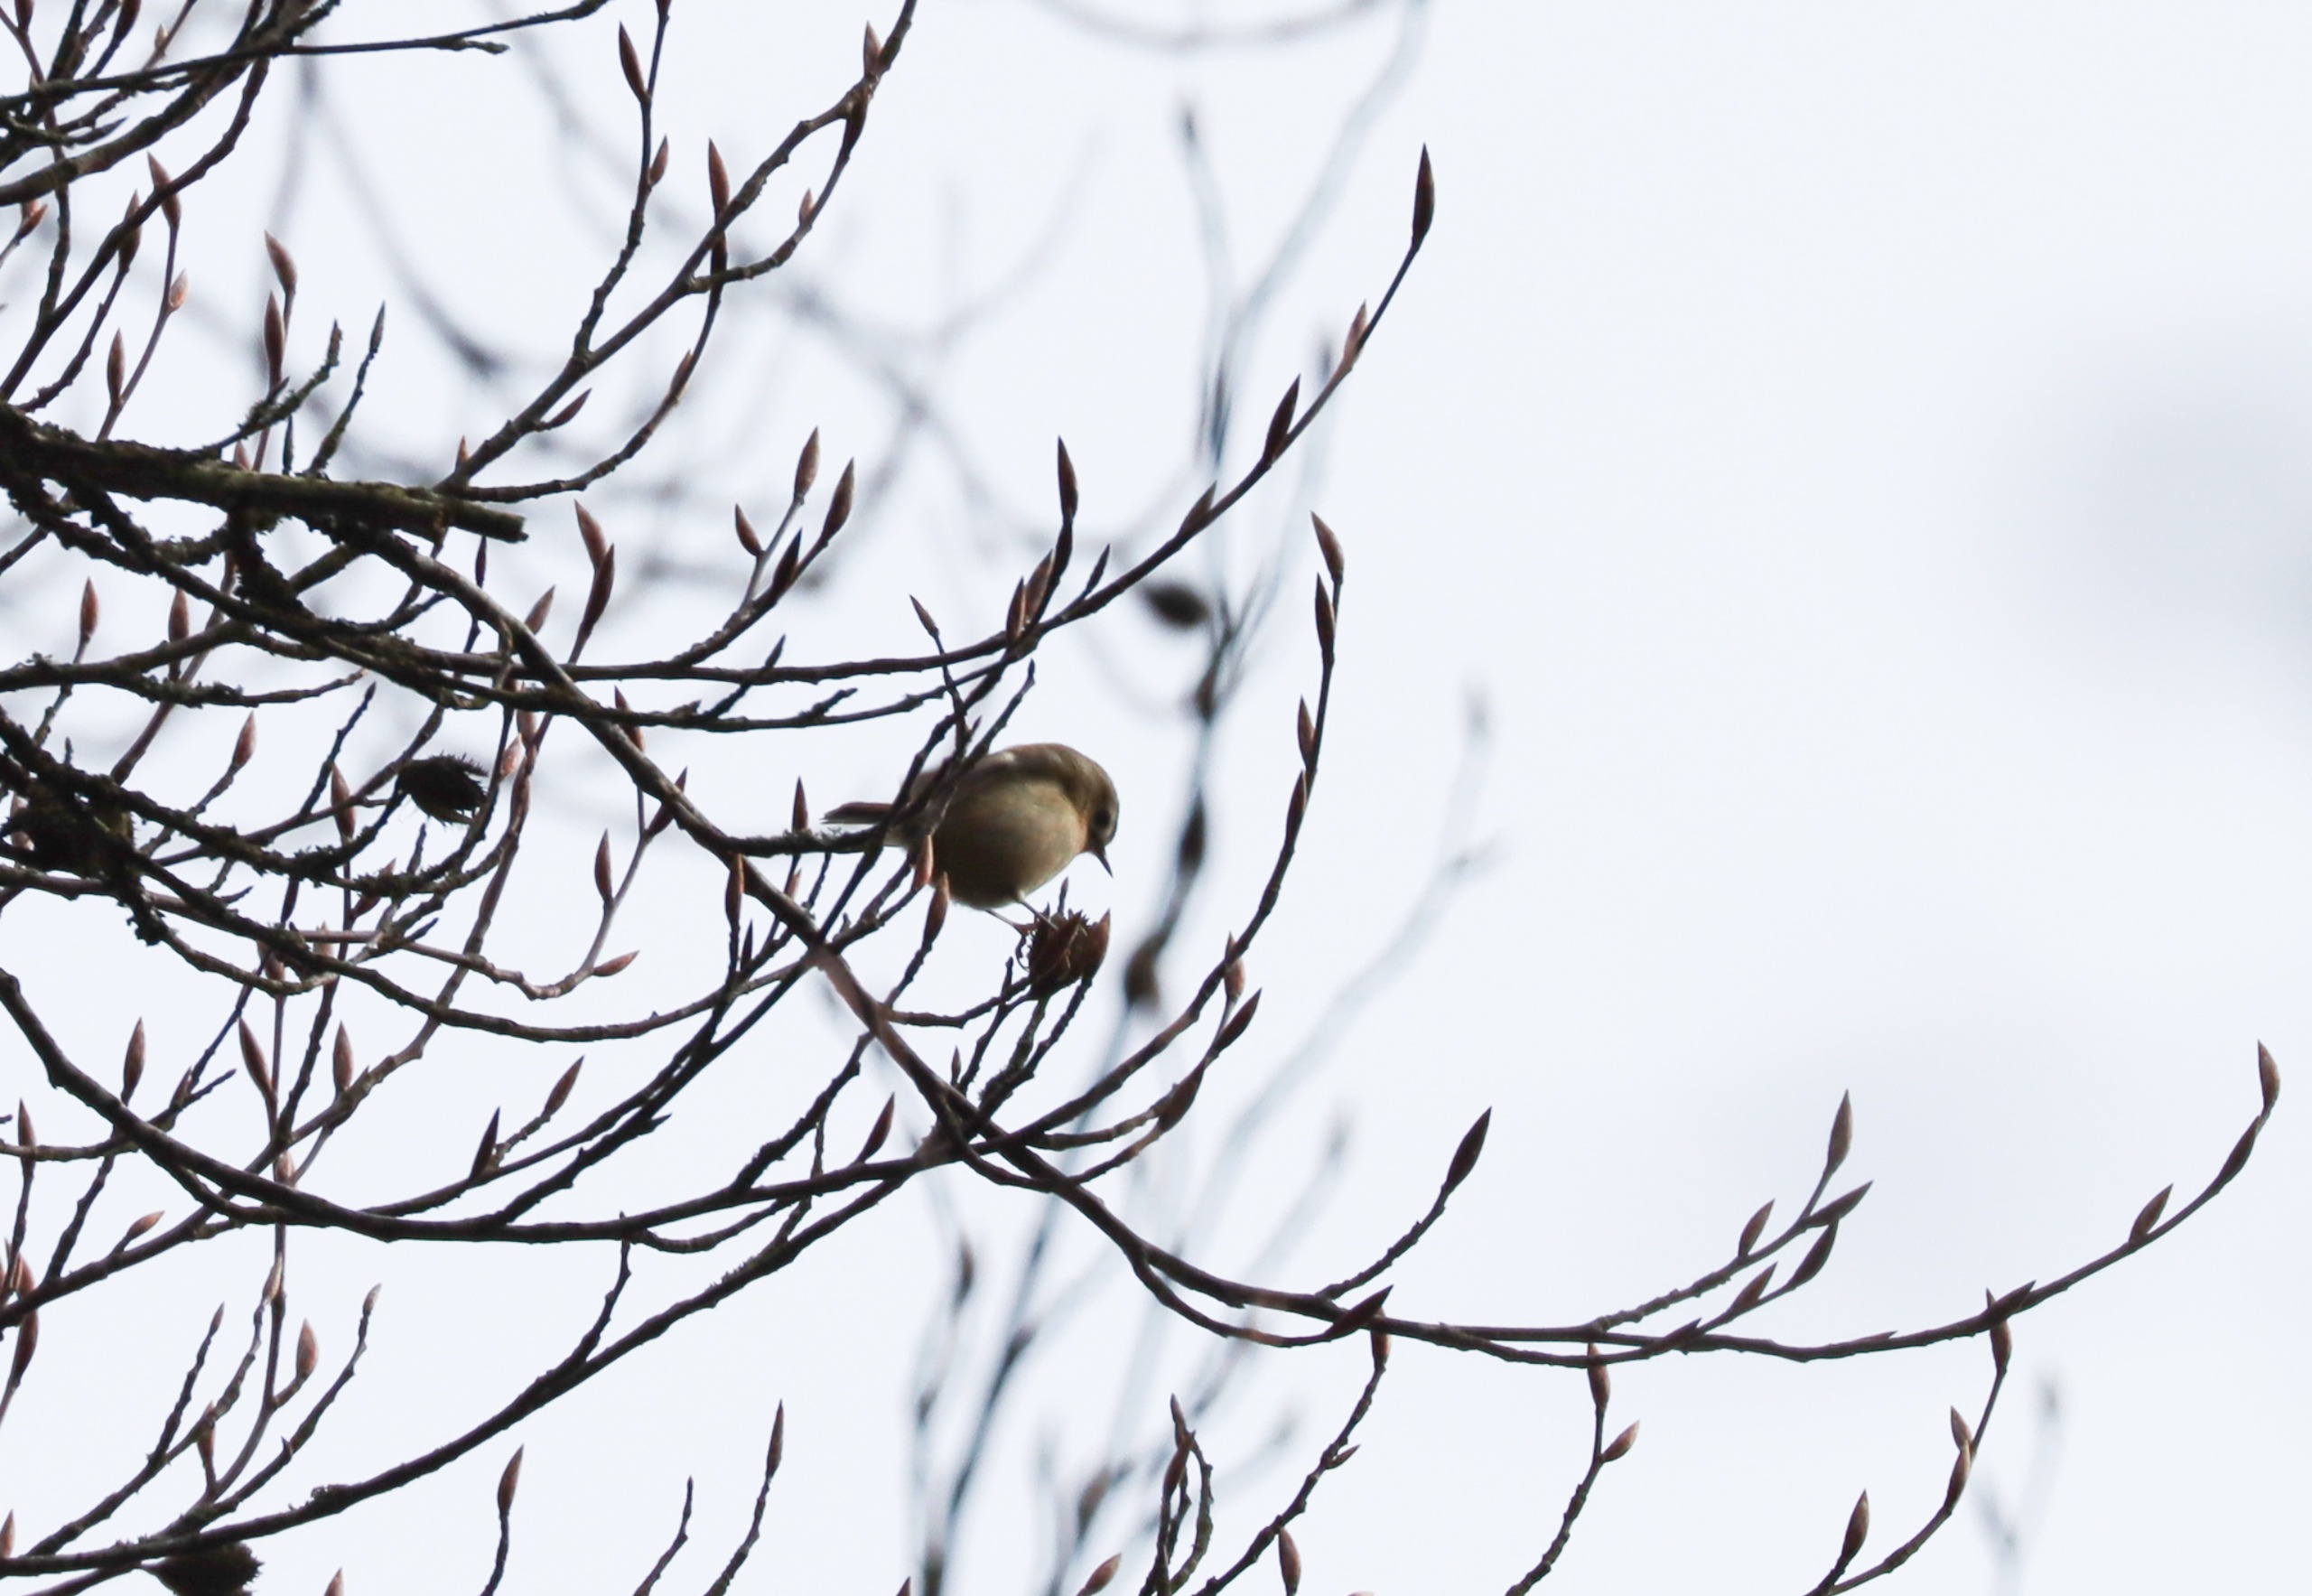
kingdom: Animalia
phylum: Chordata
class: Aves
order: Passeriformes
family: Regulidae
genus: Regulus
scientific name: Regulus regulus
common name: Fuglekonge
